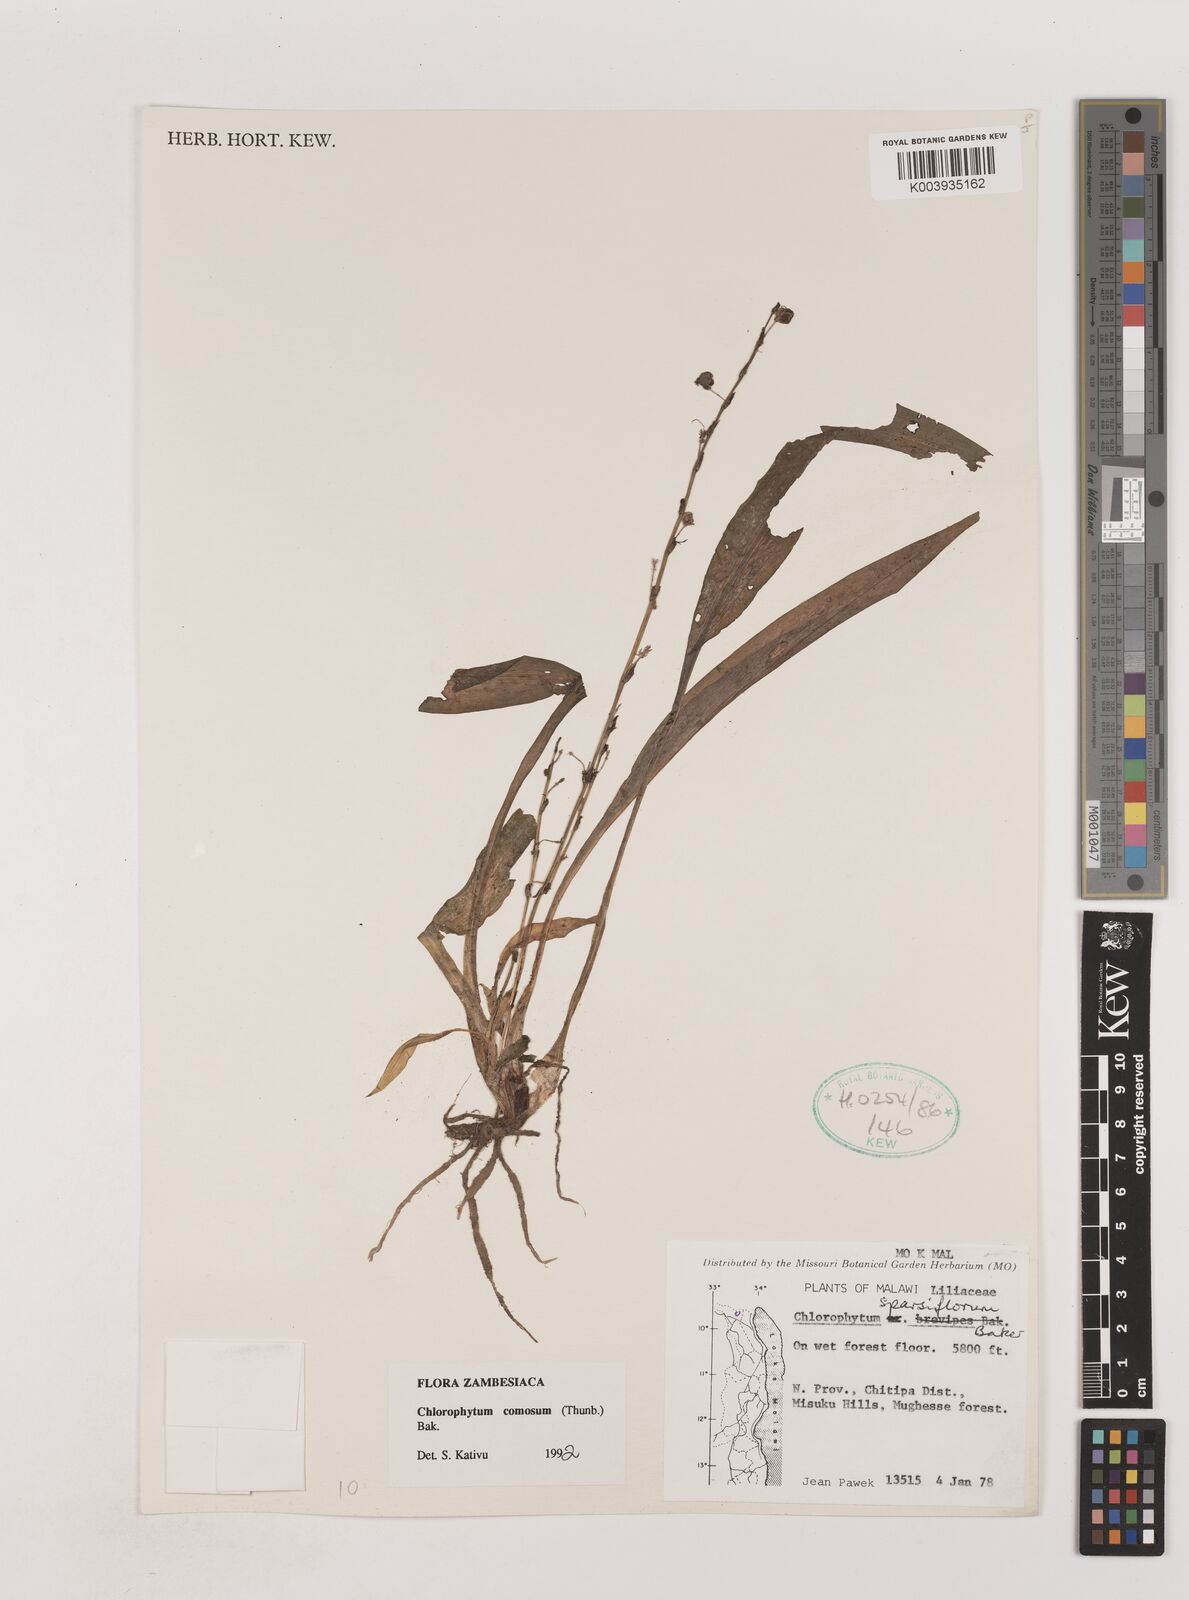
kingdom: Plantae
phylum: Tracheophyta
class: Liliopsida
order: Asparagales
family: Asparagaceae
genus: Chlorophytum
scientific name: Chlorophytum comosum
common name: Spider plant
